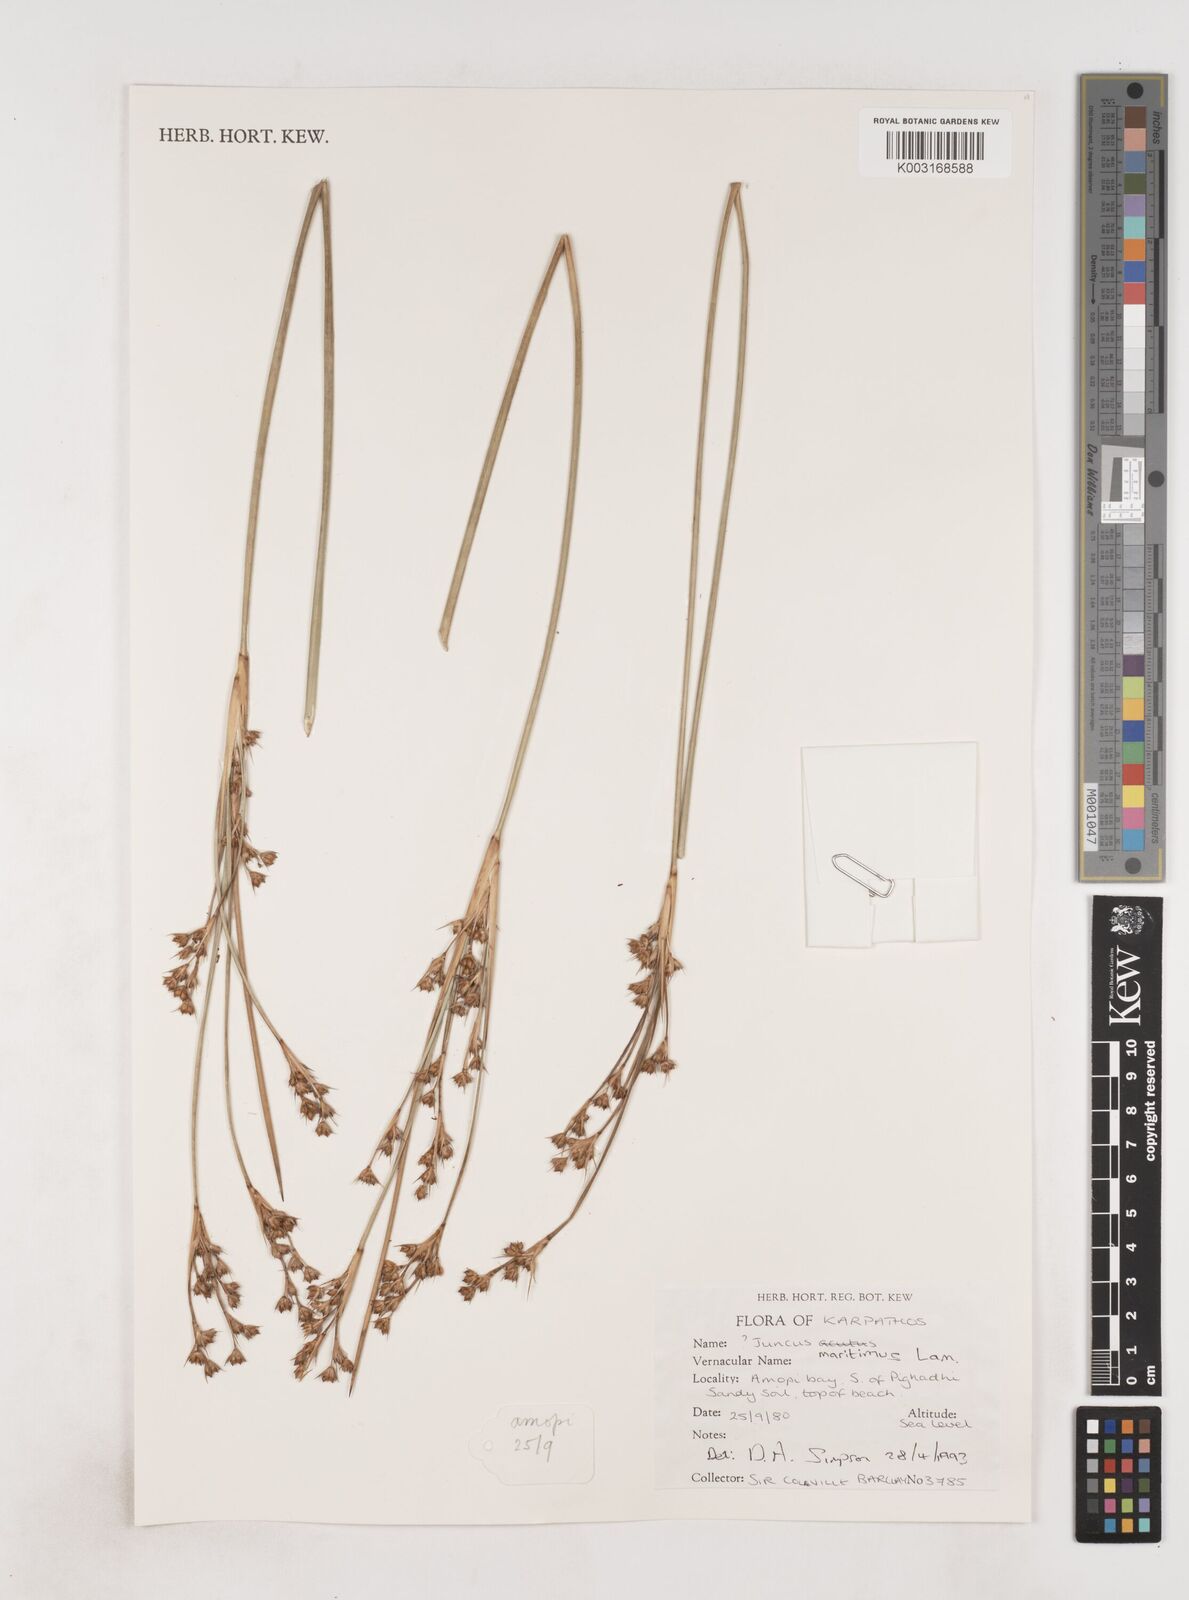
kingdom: Plantae
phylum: Tracheophyta
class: Liliopsida
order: Poales
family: Juncaceae
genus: Juncus
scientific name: Juncus maritimus
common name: Sea rush
